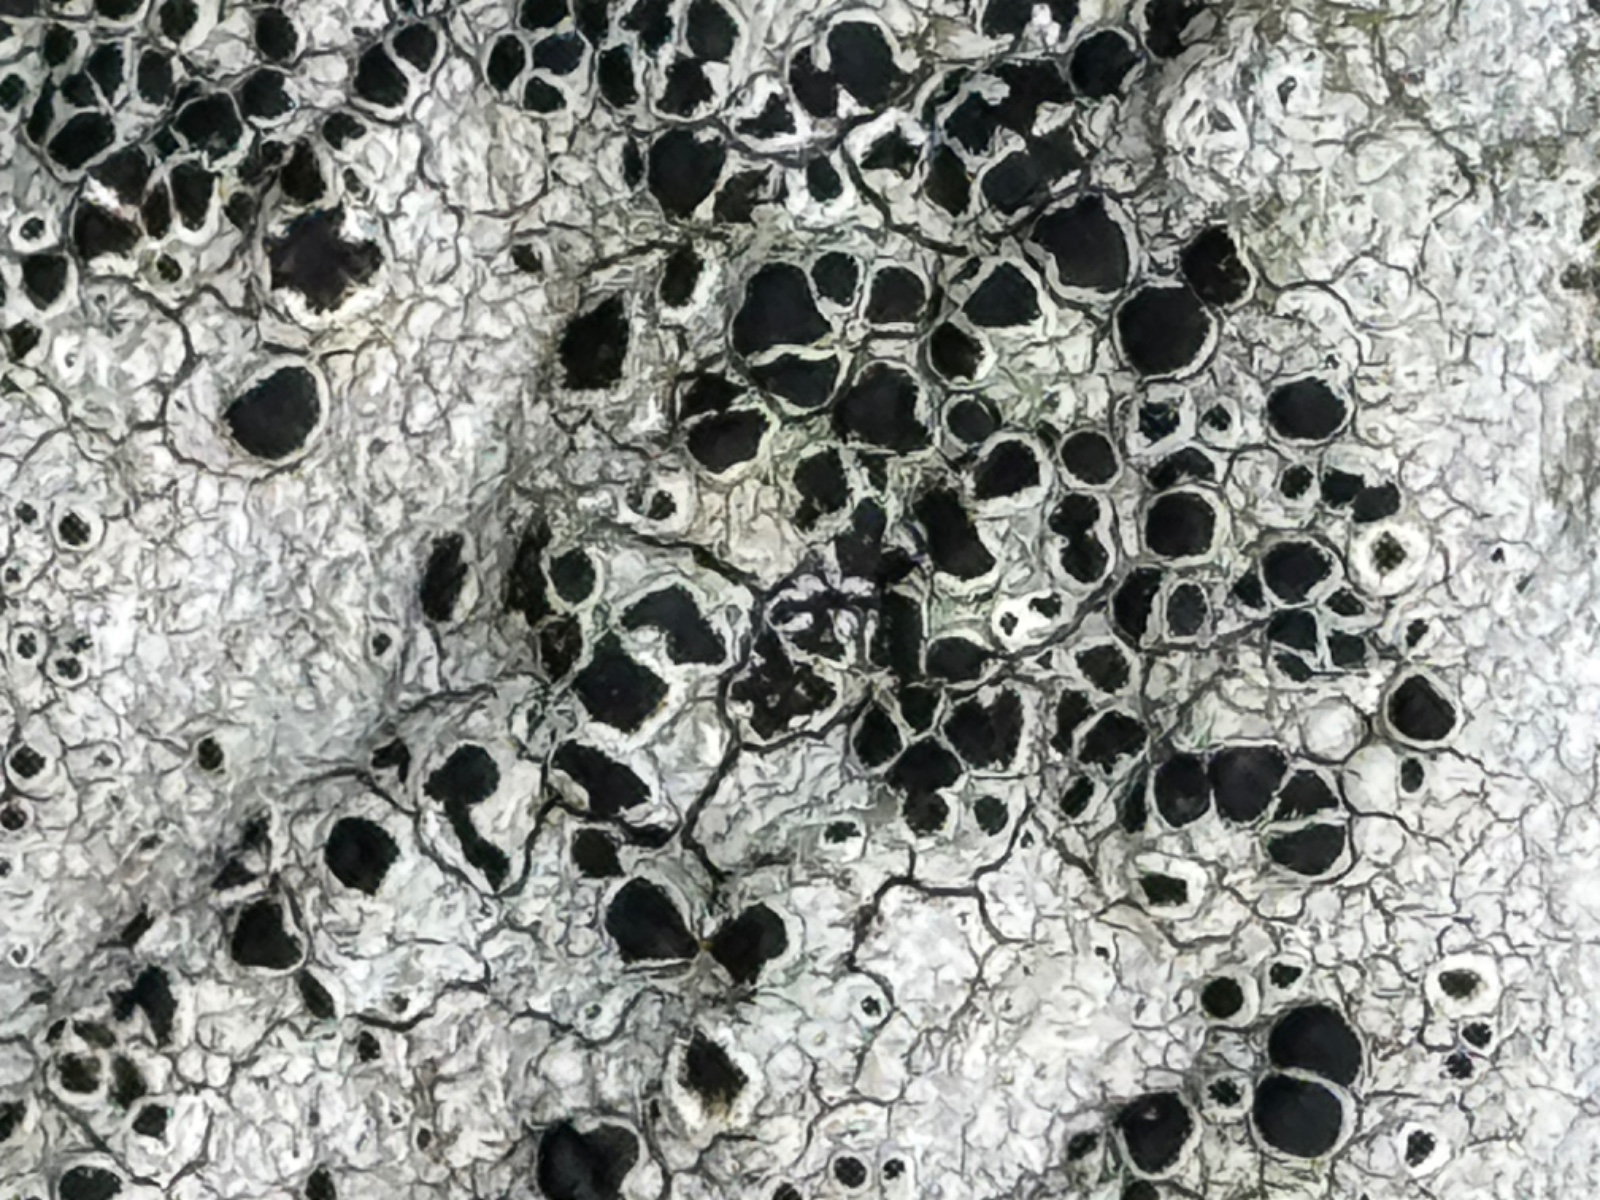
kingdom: Fungi
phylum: Ascomycota
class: Lecanoromycetes
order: Lecanorales
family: Tephromelataceae
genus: Tephromela
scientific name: Tephromela atra
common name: sortfrugtet kantskivelav
